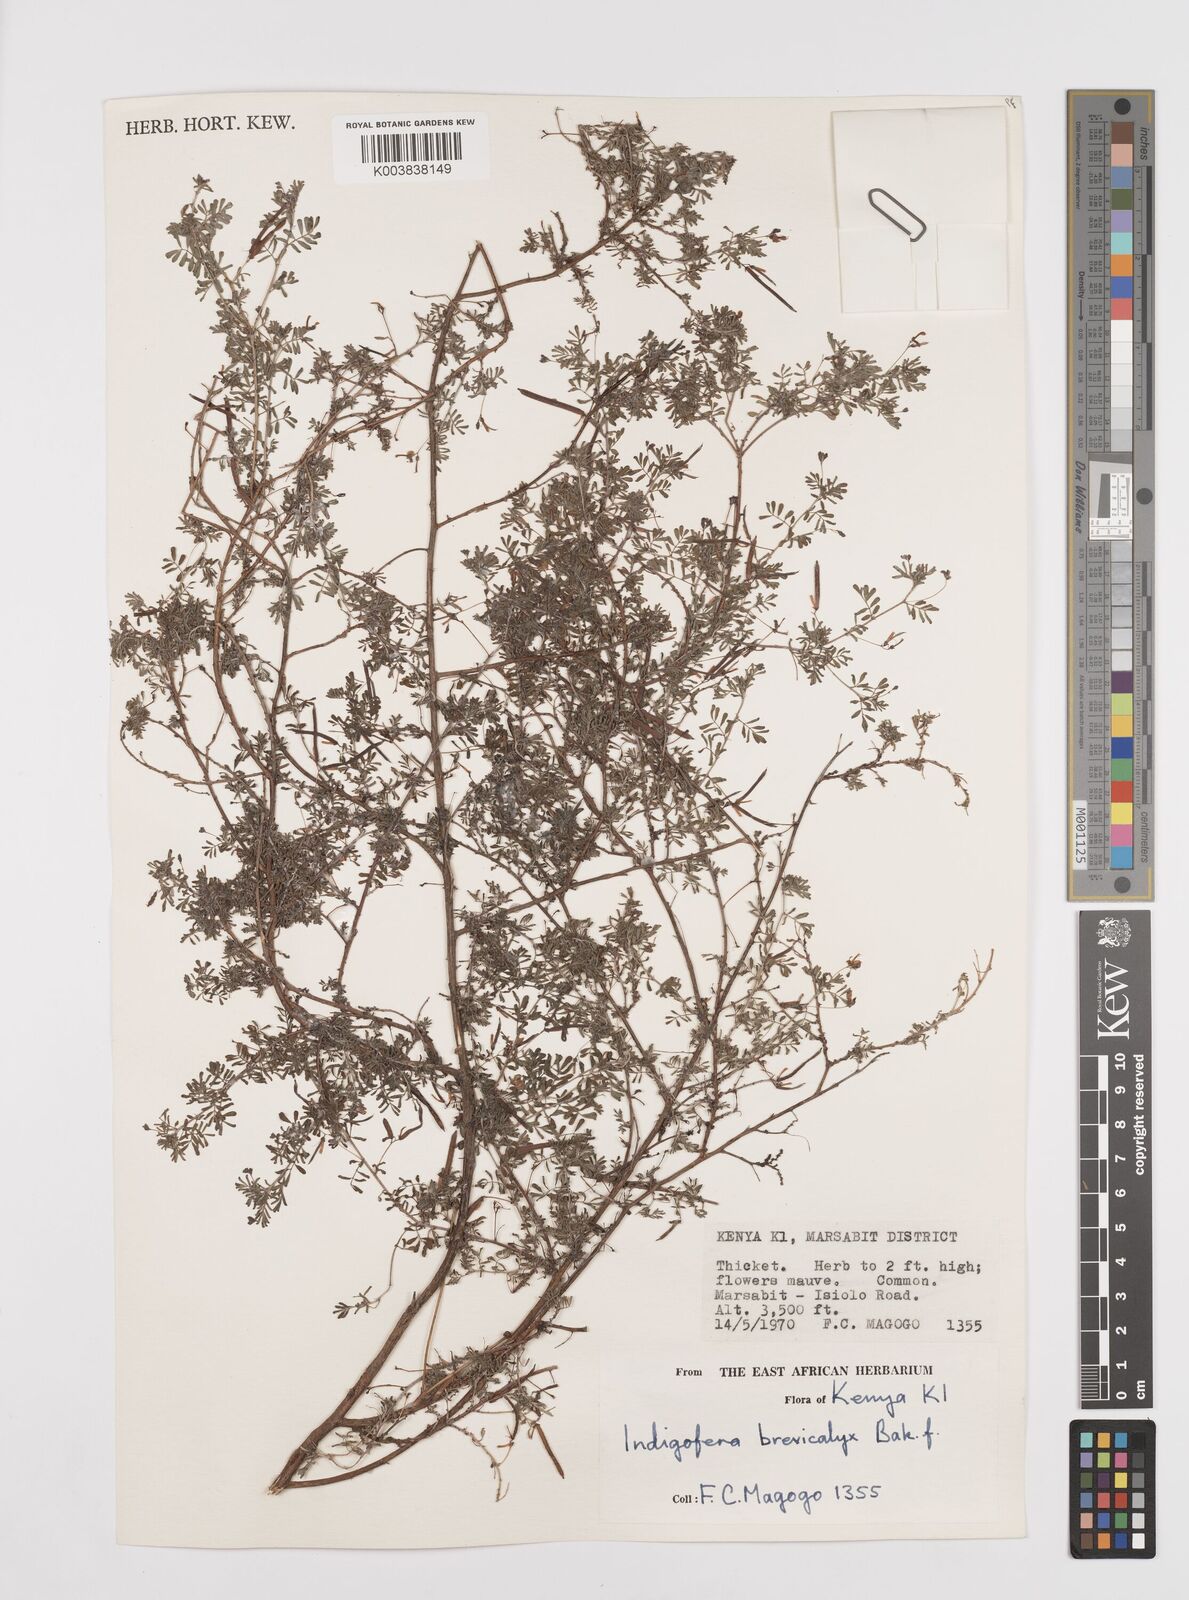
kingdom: Plantae
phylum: Tracheophyta
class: Magnoliopsida
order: Fabales
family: Fabaceae
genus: Indigofera
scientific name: Indigofera brevicalyx
